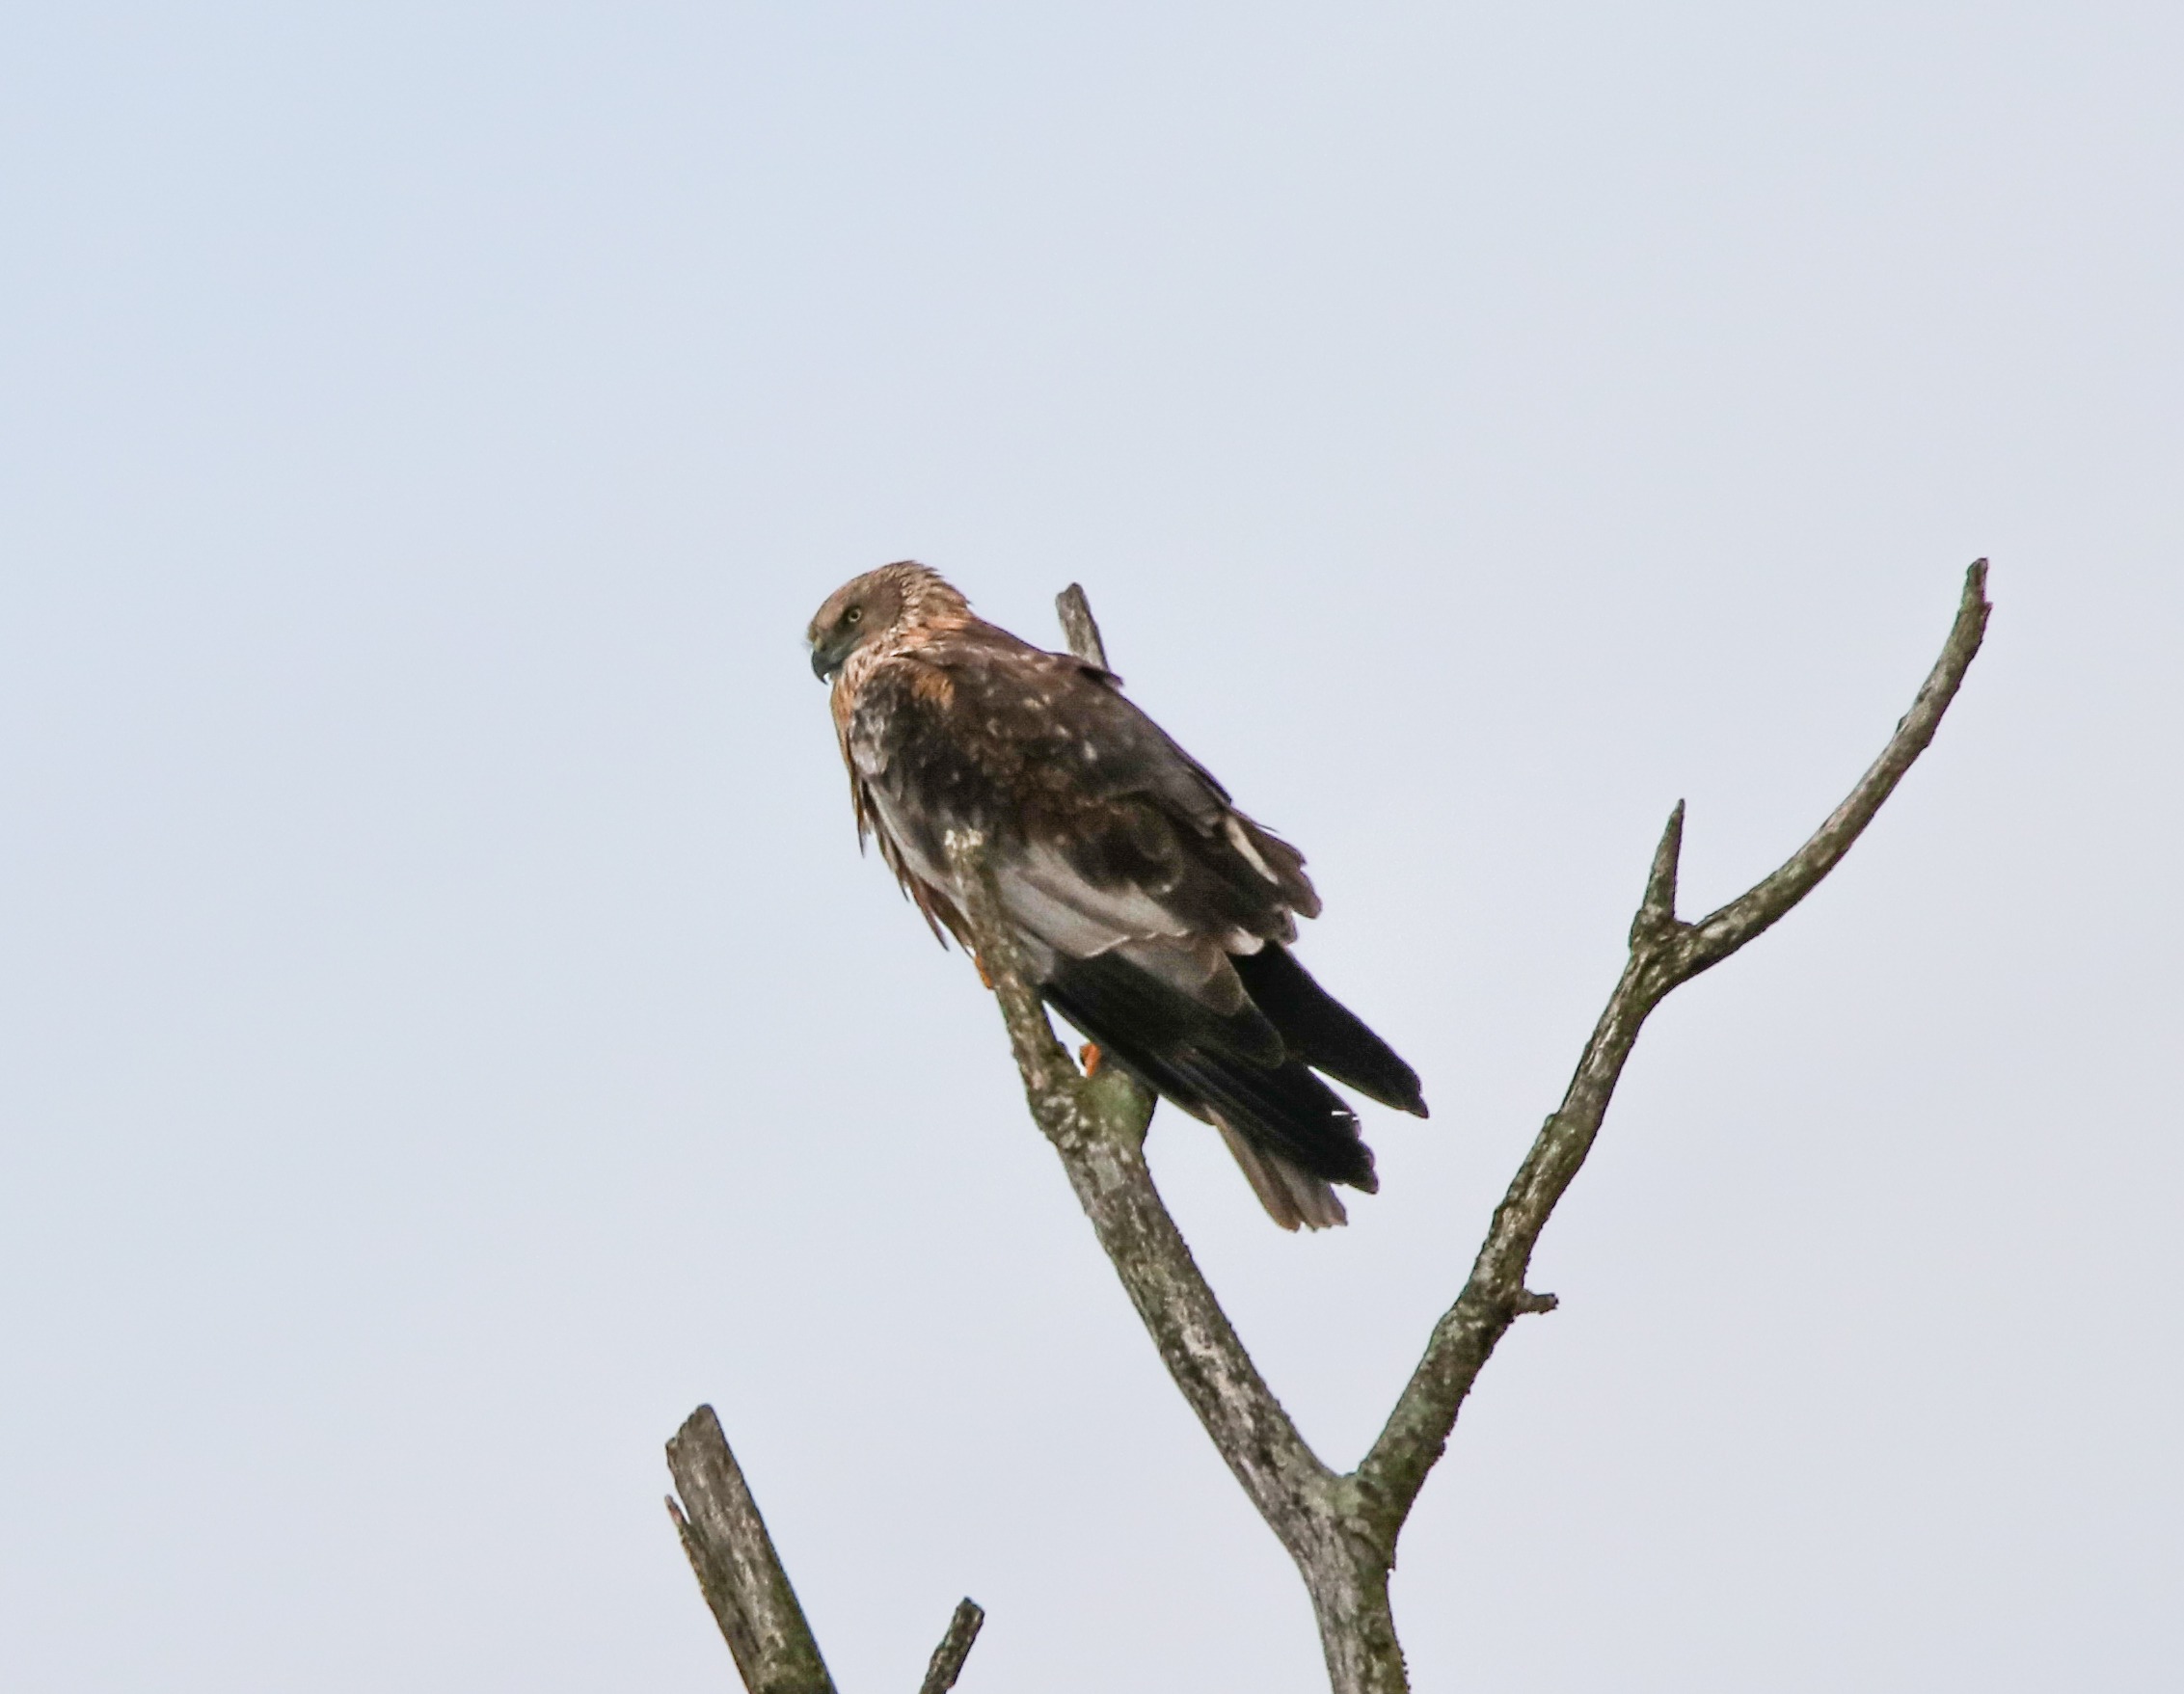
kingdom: Animalia
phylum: Chordata
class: Aves
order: Accipitriformes
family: Accipitridae
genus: Circus
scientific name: Circus aeruginosus
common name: Rørhøg
